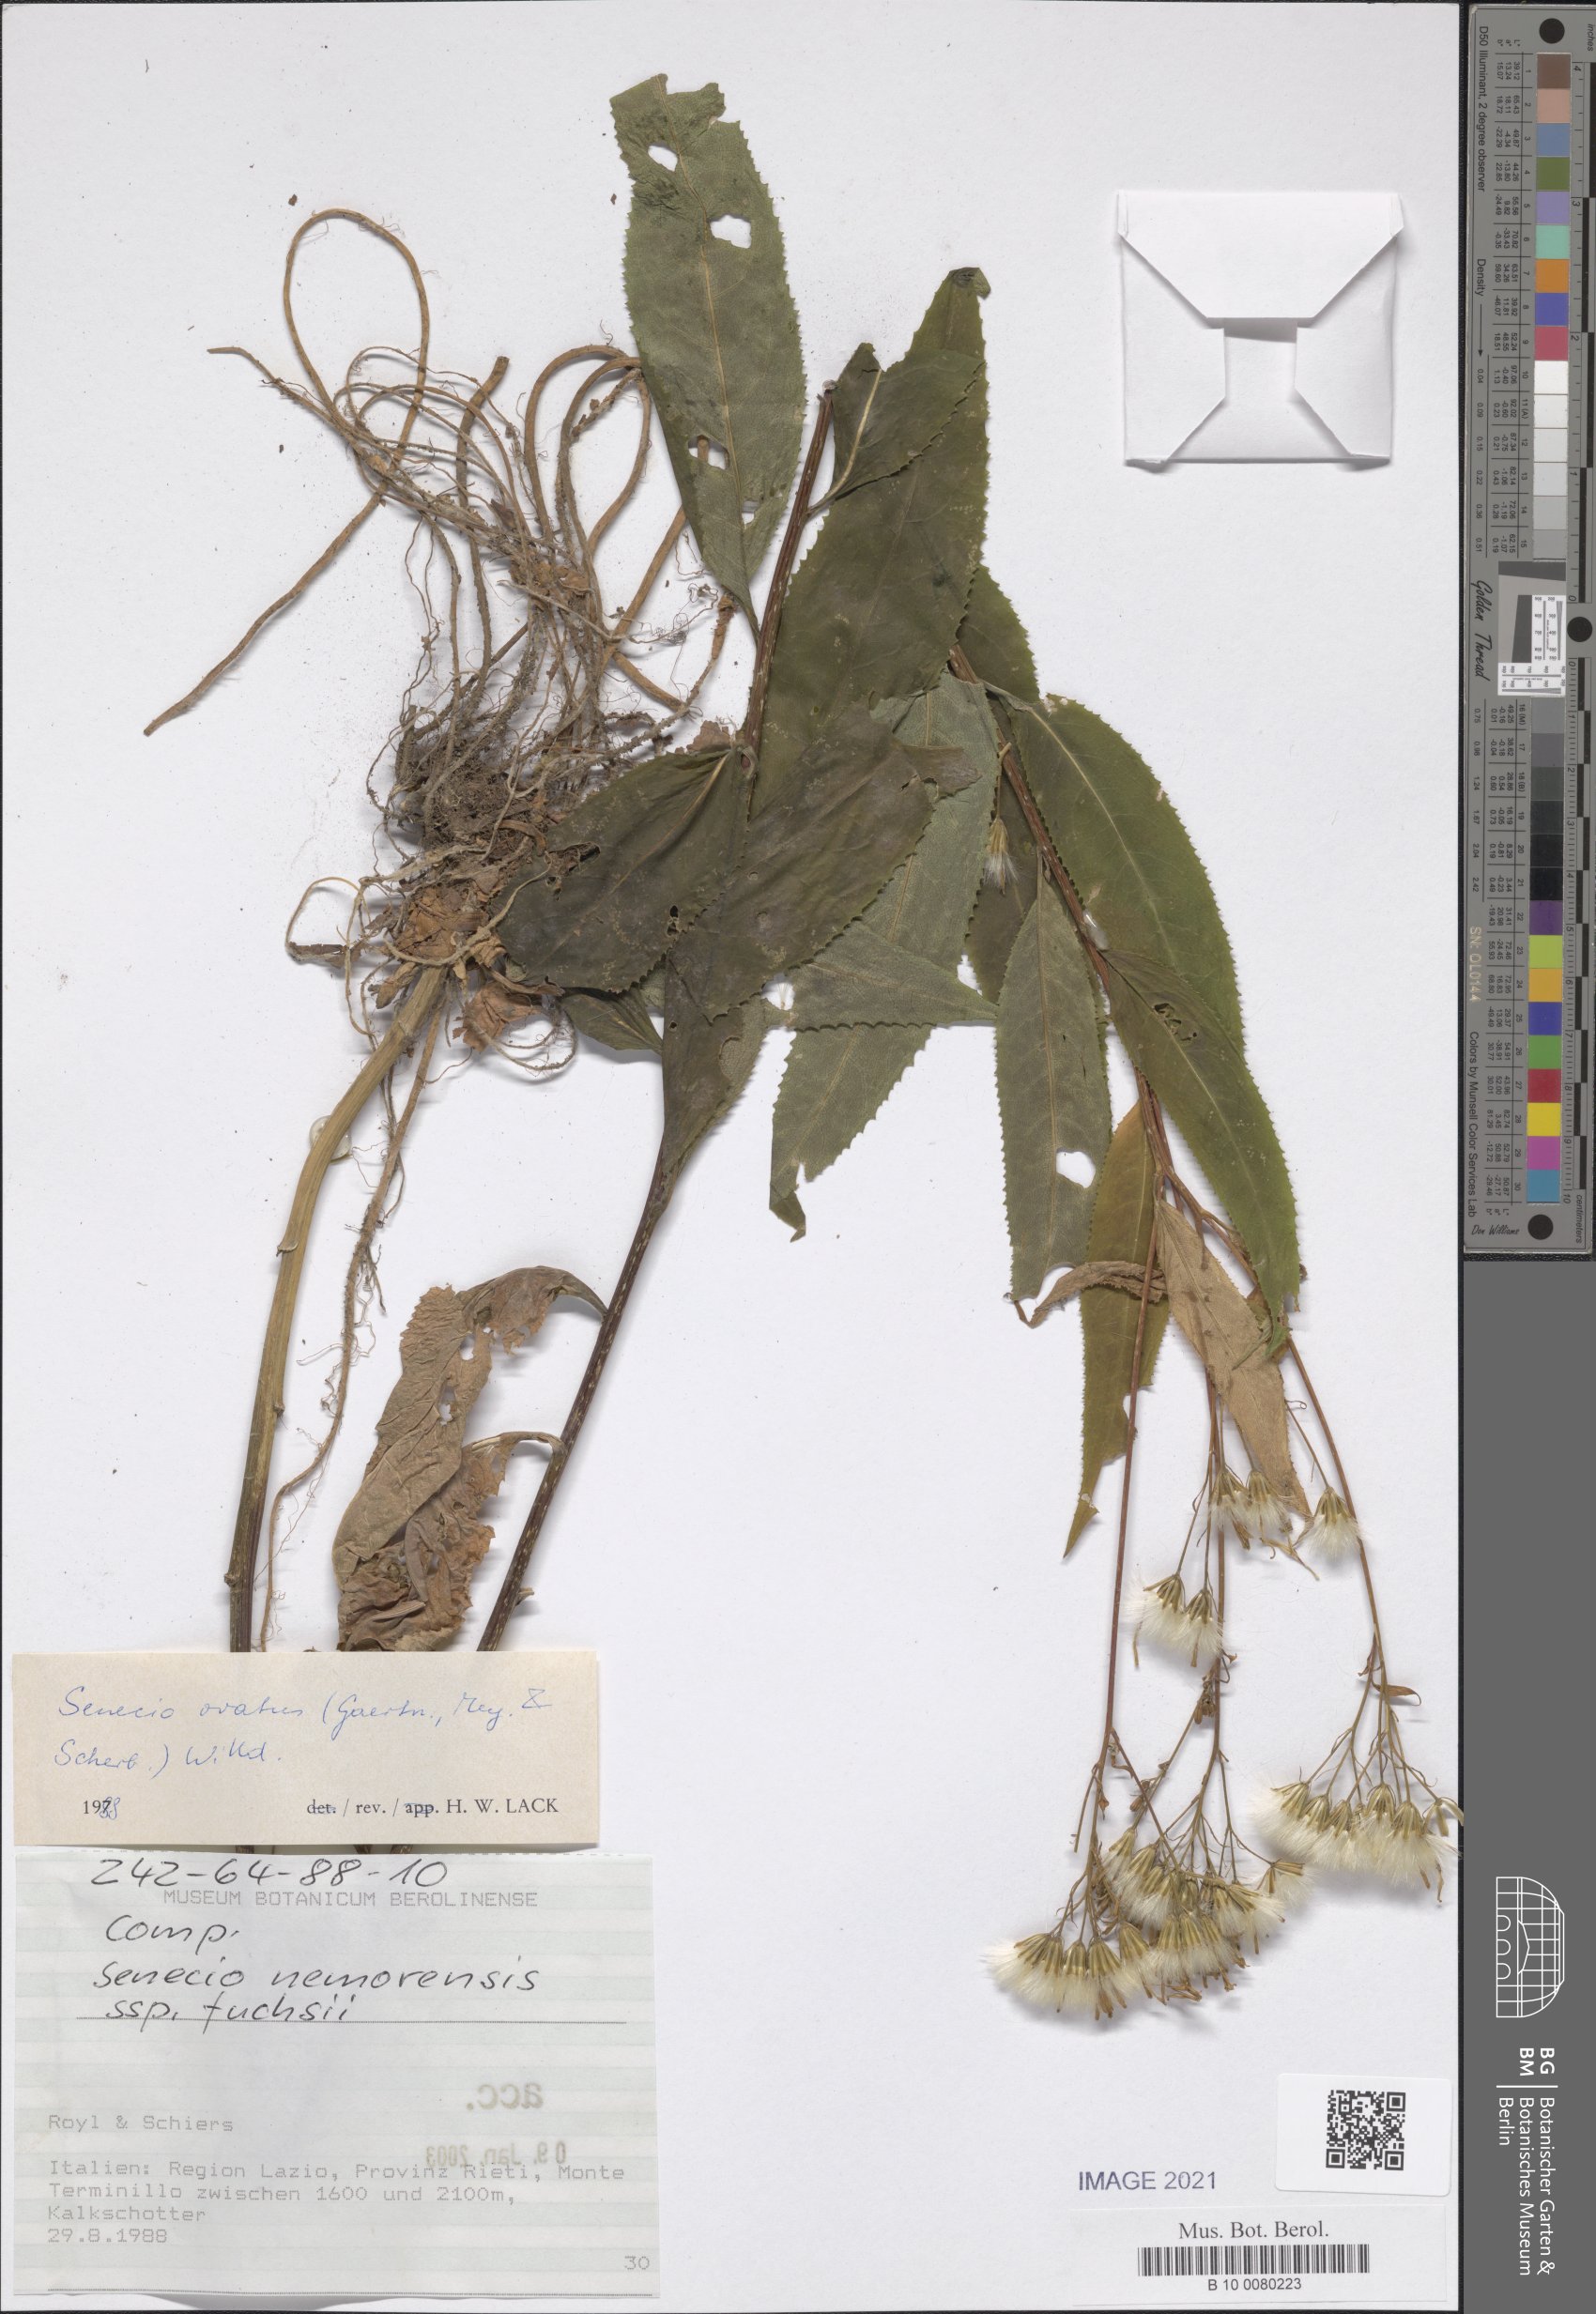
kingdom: Plantae
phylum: Tracheophyta
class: Magnoliopsida
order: Asterales
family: Asteraceae
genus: Senecio
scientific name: Senecio ovatus
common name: Wood ragwort
